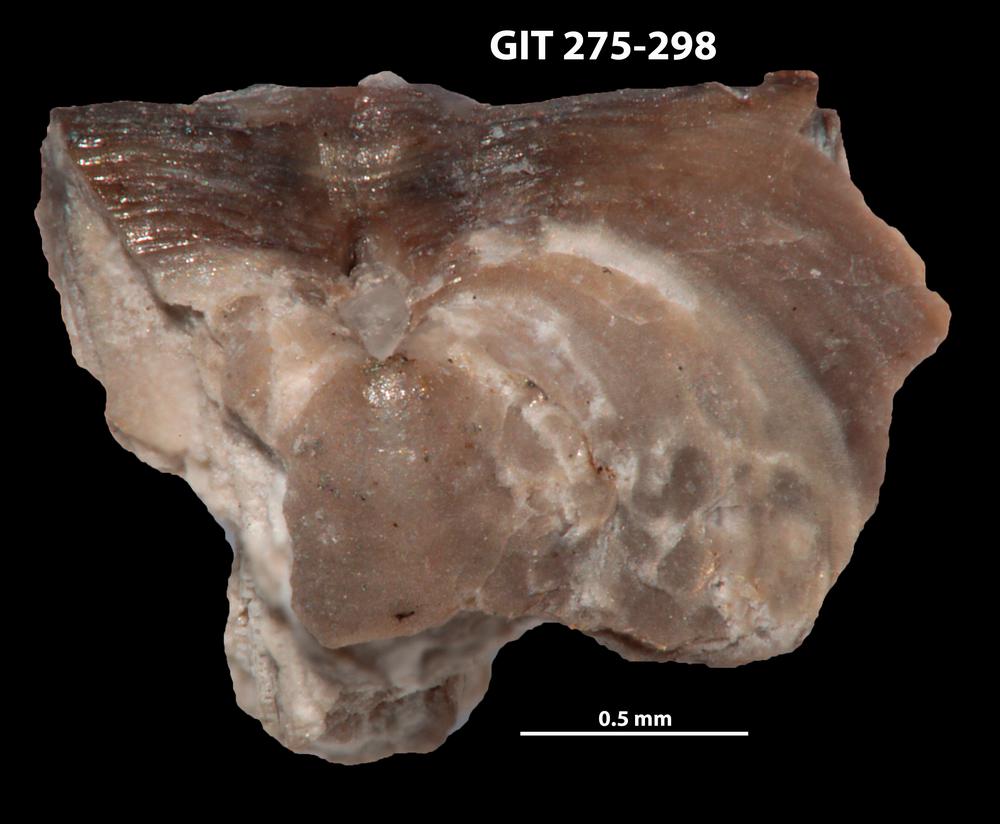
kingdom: Animalia
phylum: Brachiopoda
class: Lingulata
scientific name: Lingulata
